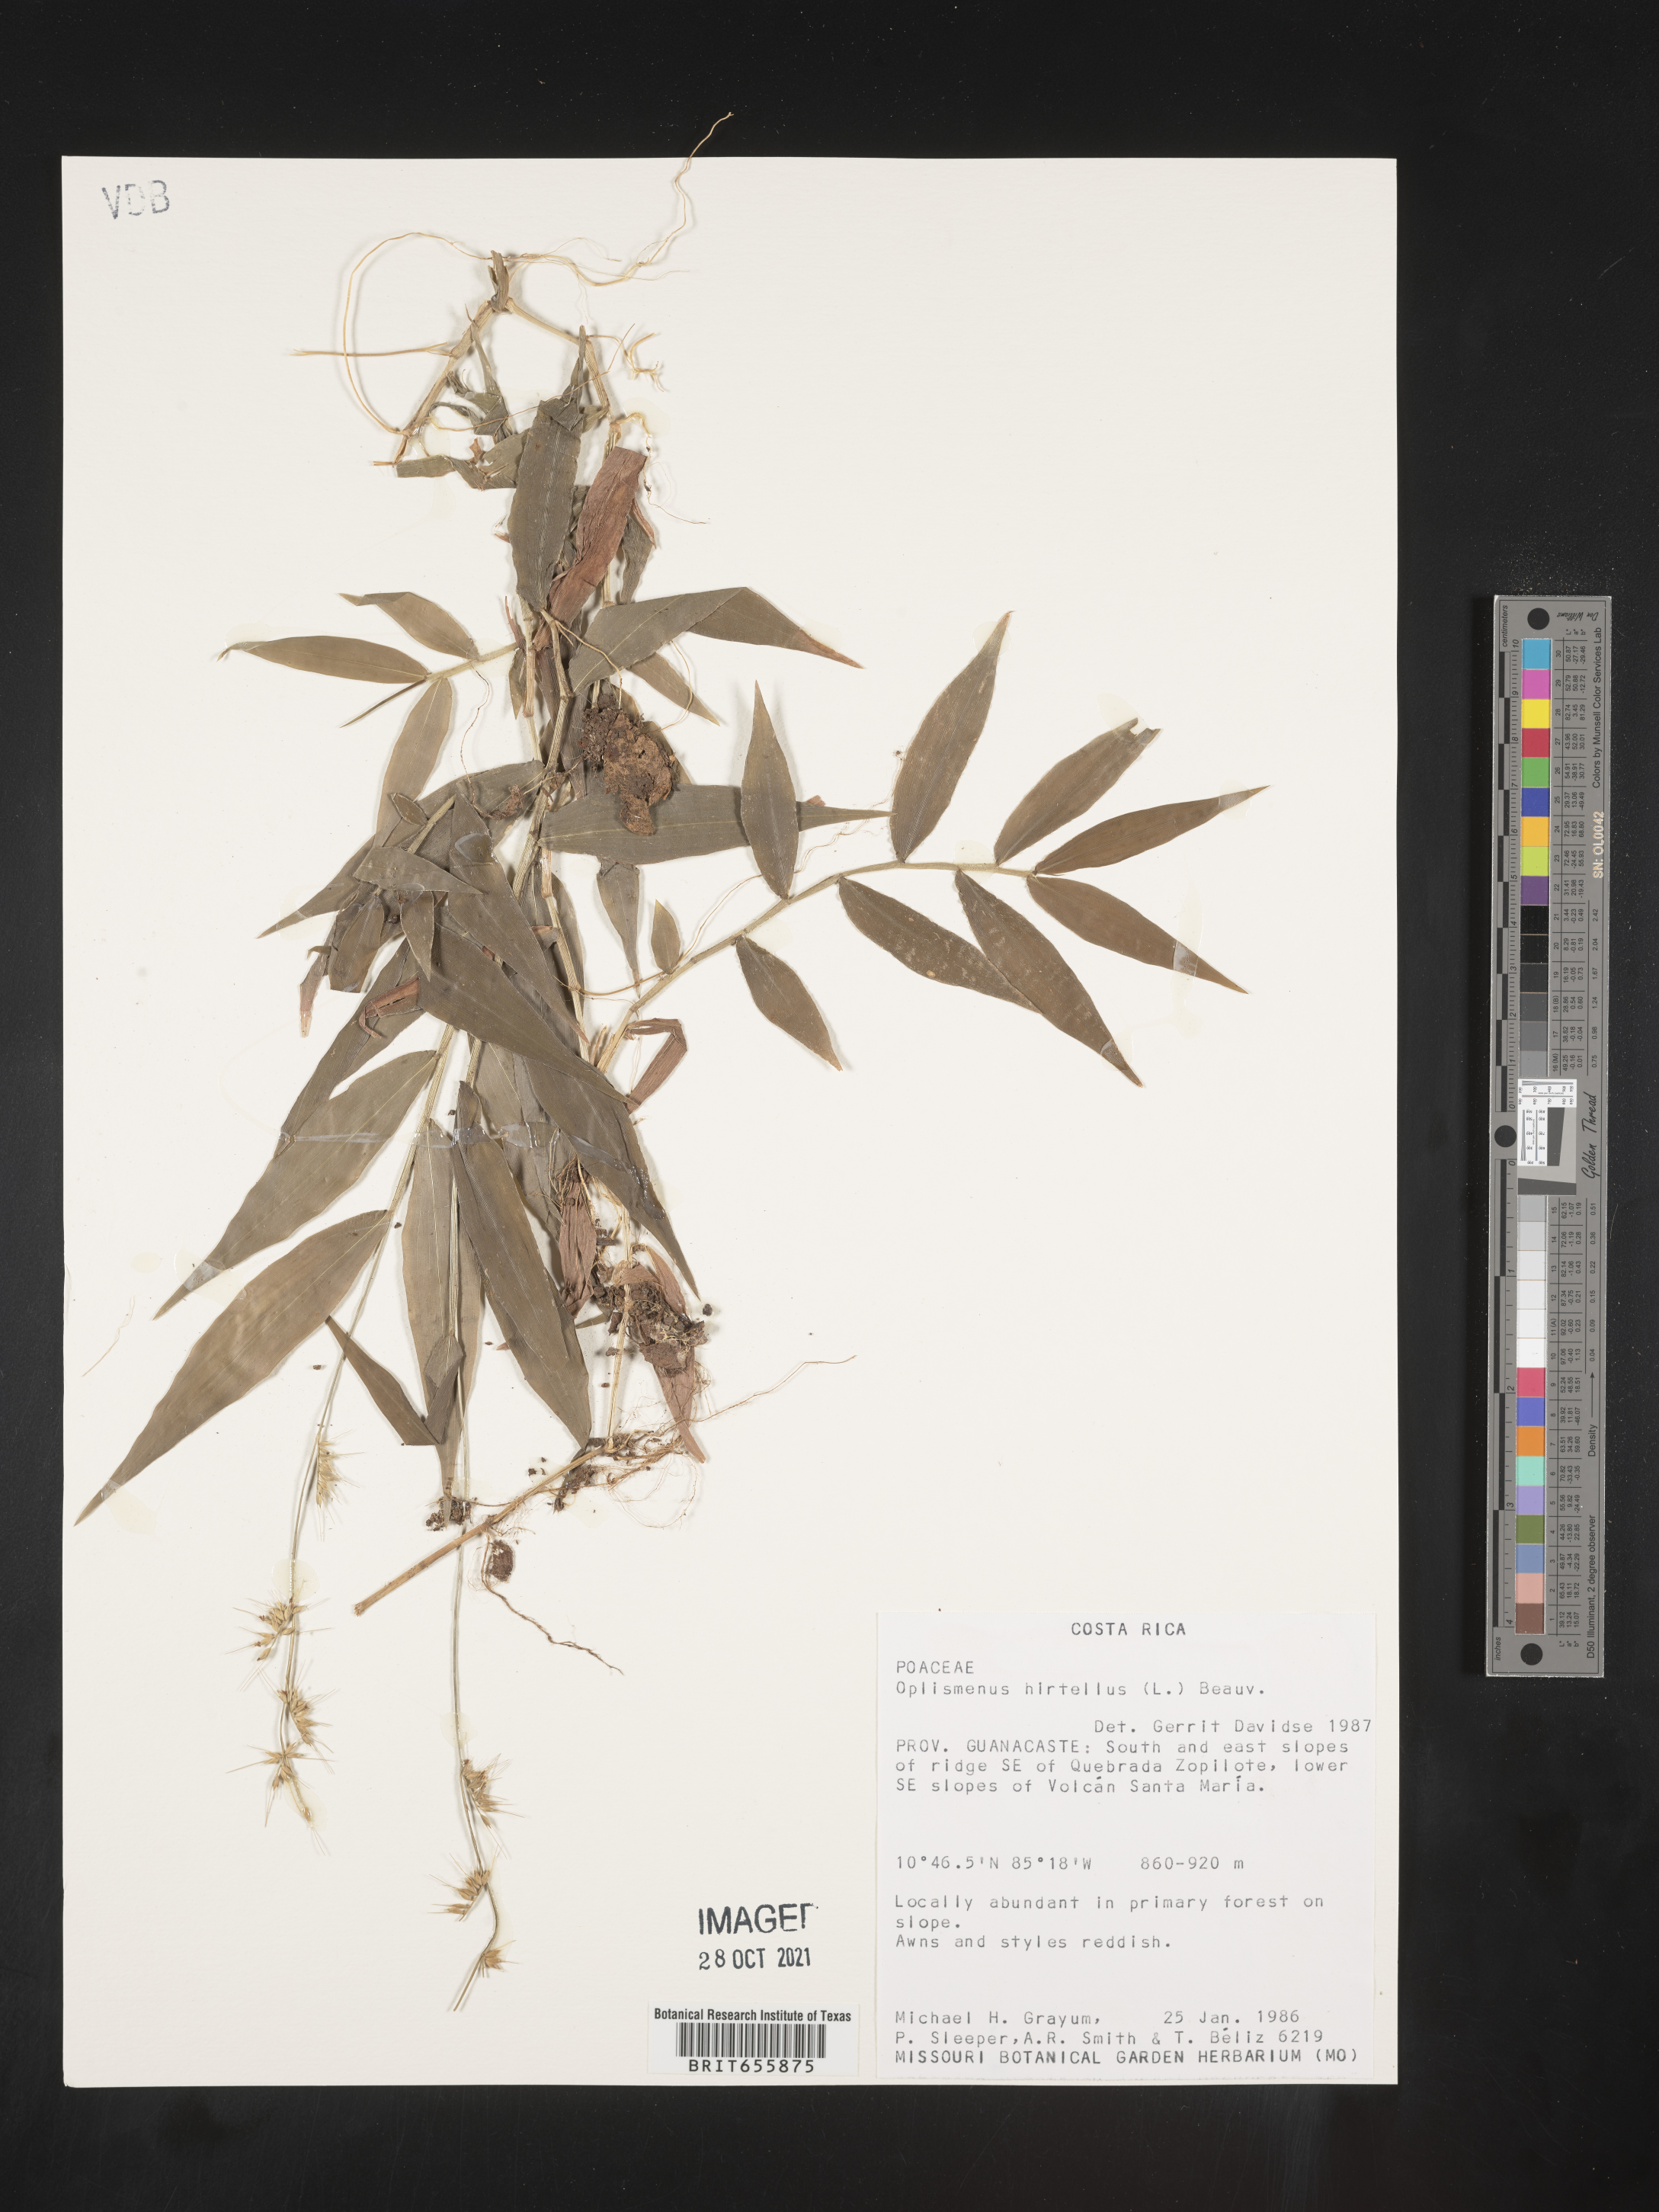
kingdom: Plantae
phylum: Tracheophyta
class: Liliopsida
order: Poales
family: Poaceae
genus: Oplismenus
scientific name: Oplismenus
